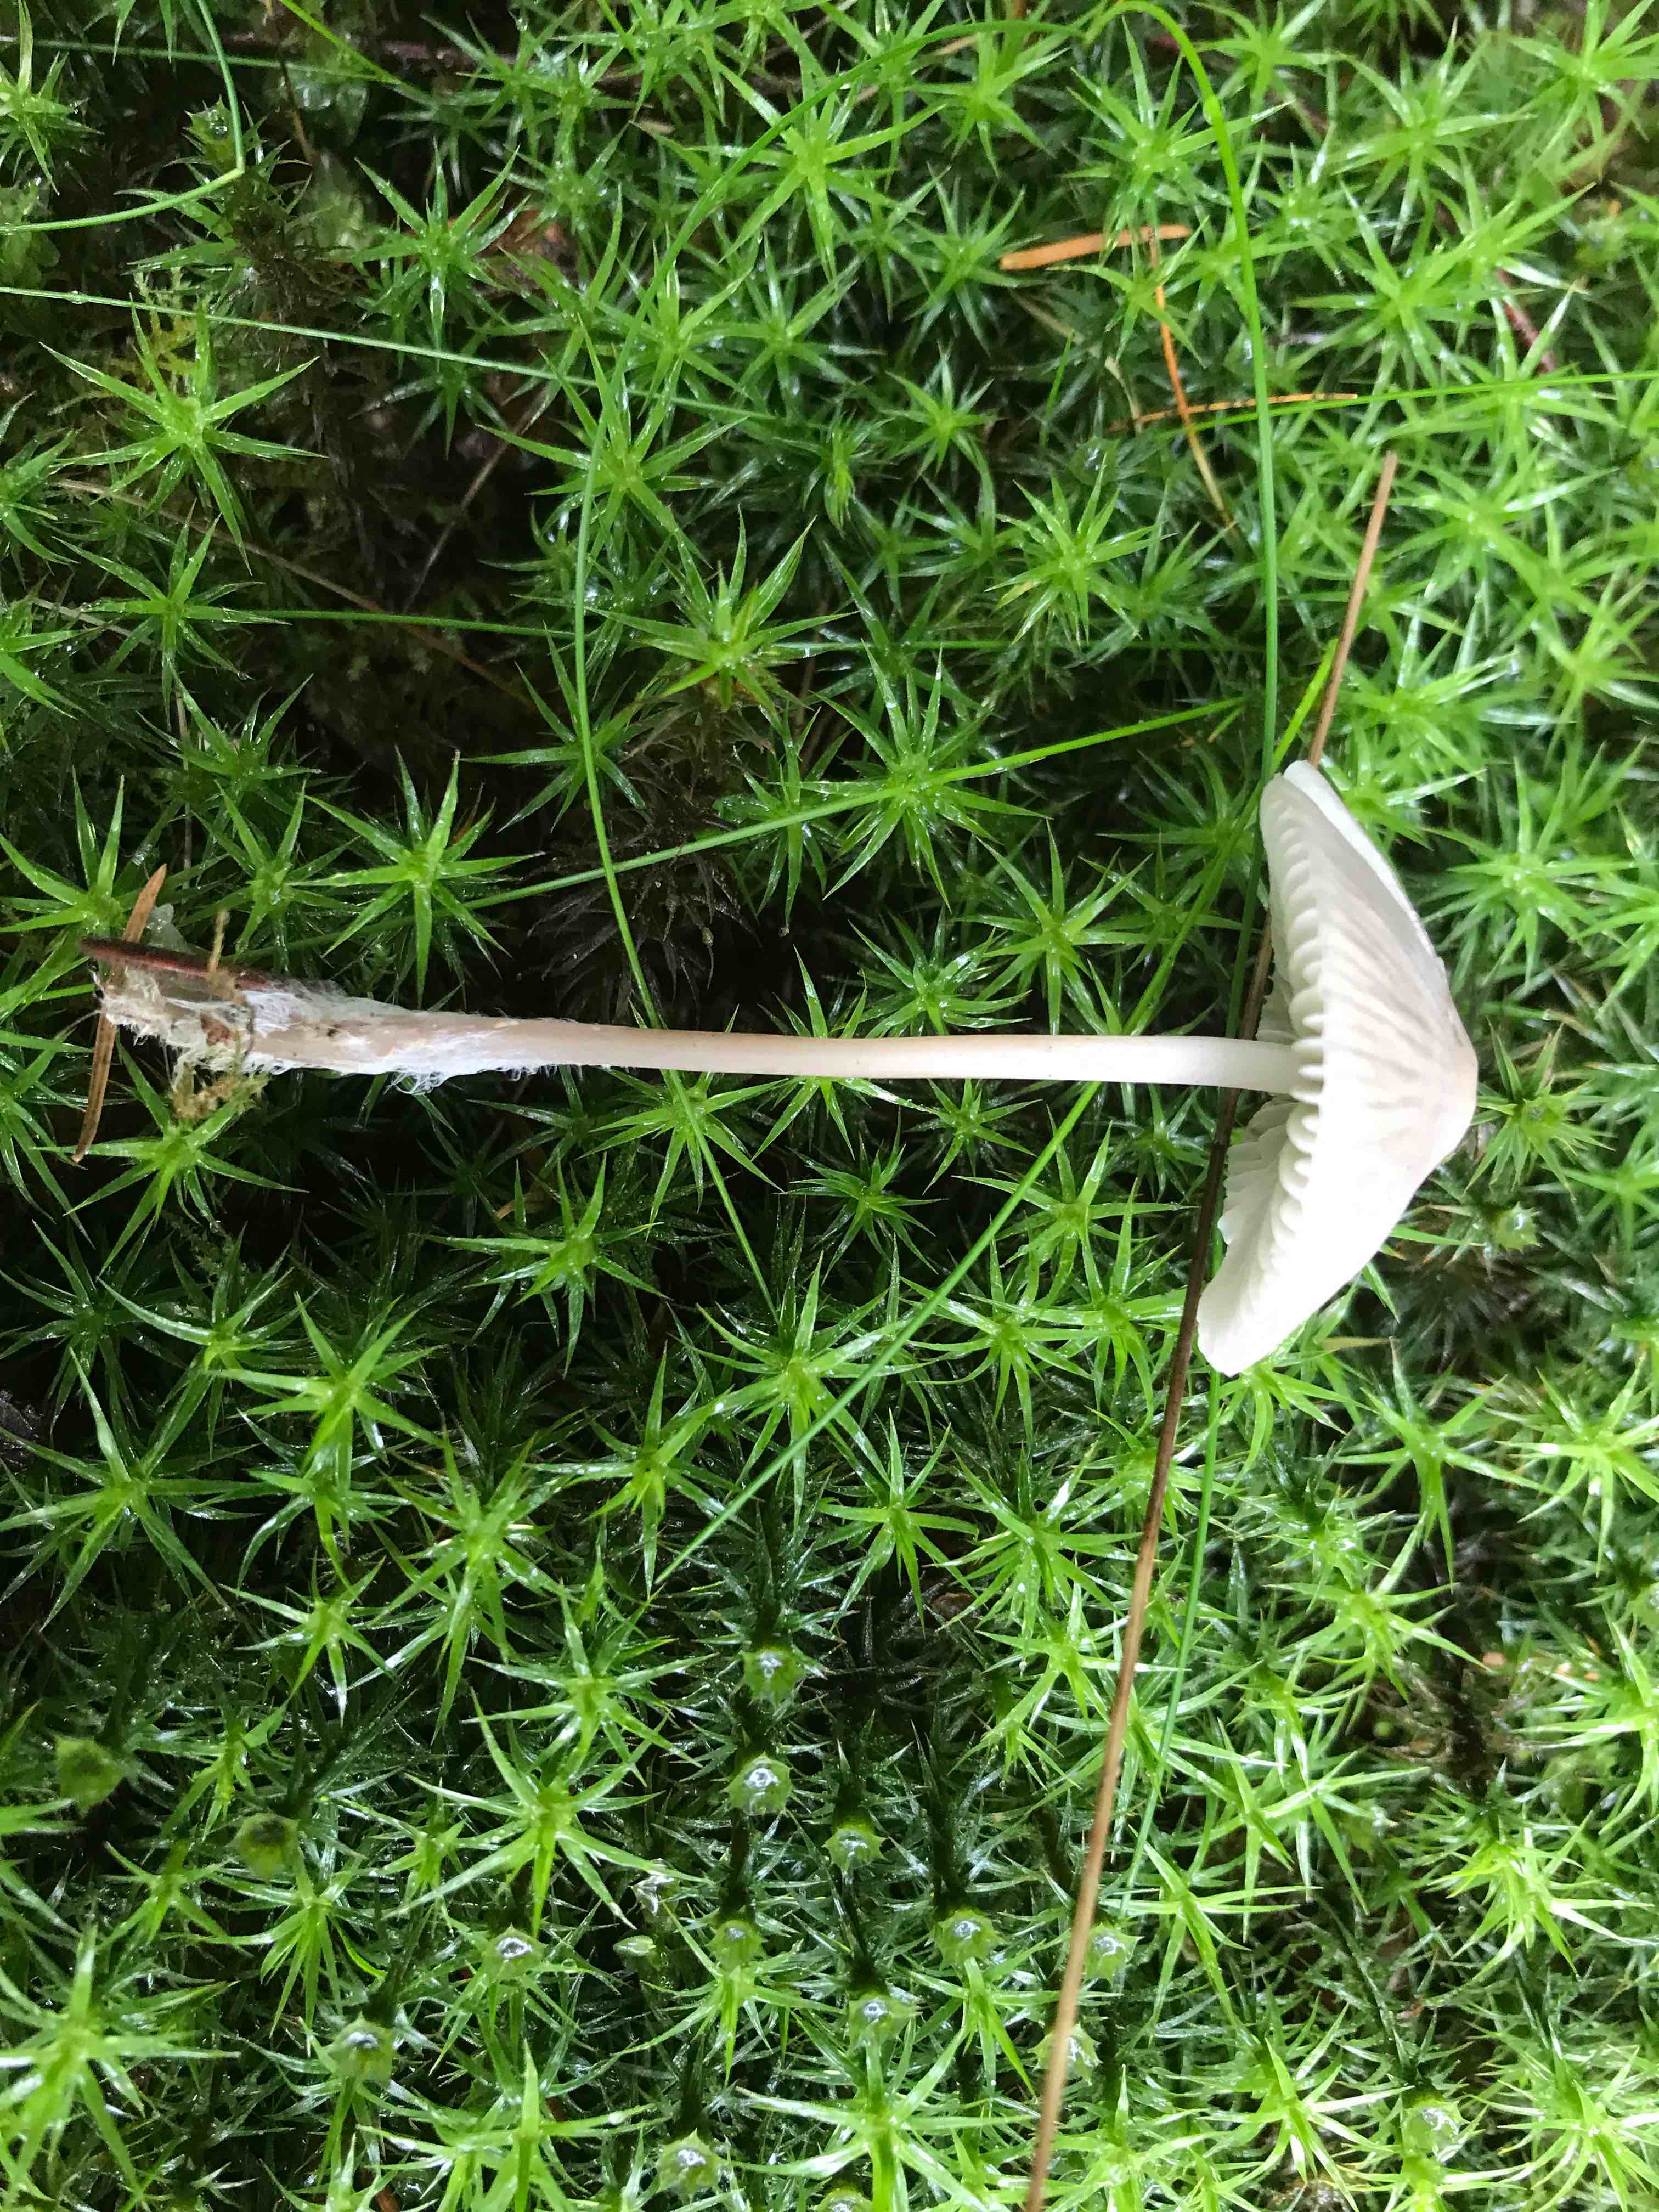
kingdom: Fungi
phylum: Basidiomycota
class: Agaricomycetes
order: Agaricales
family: Mycenaceae
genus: Mycena
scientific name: Mycena
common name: huesvamp
